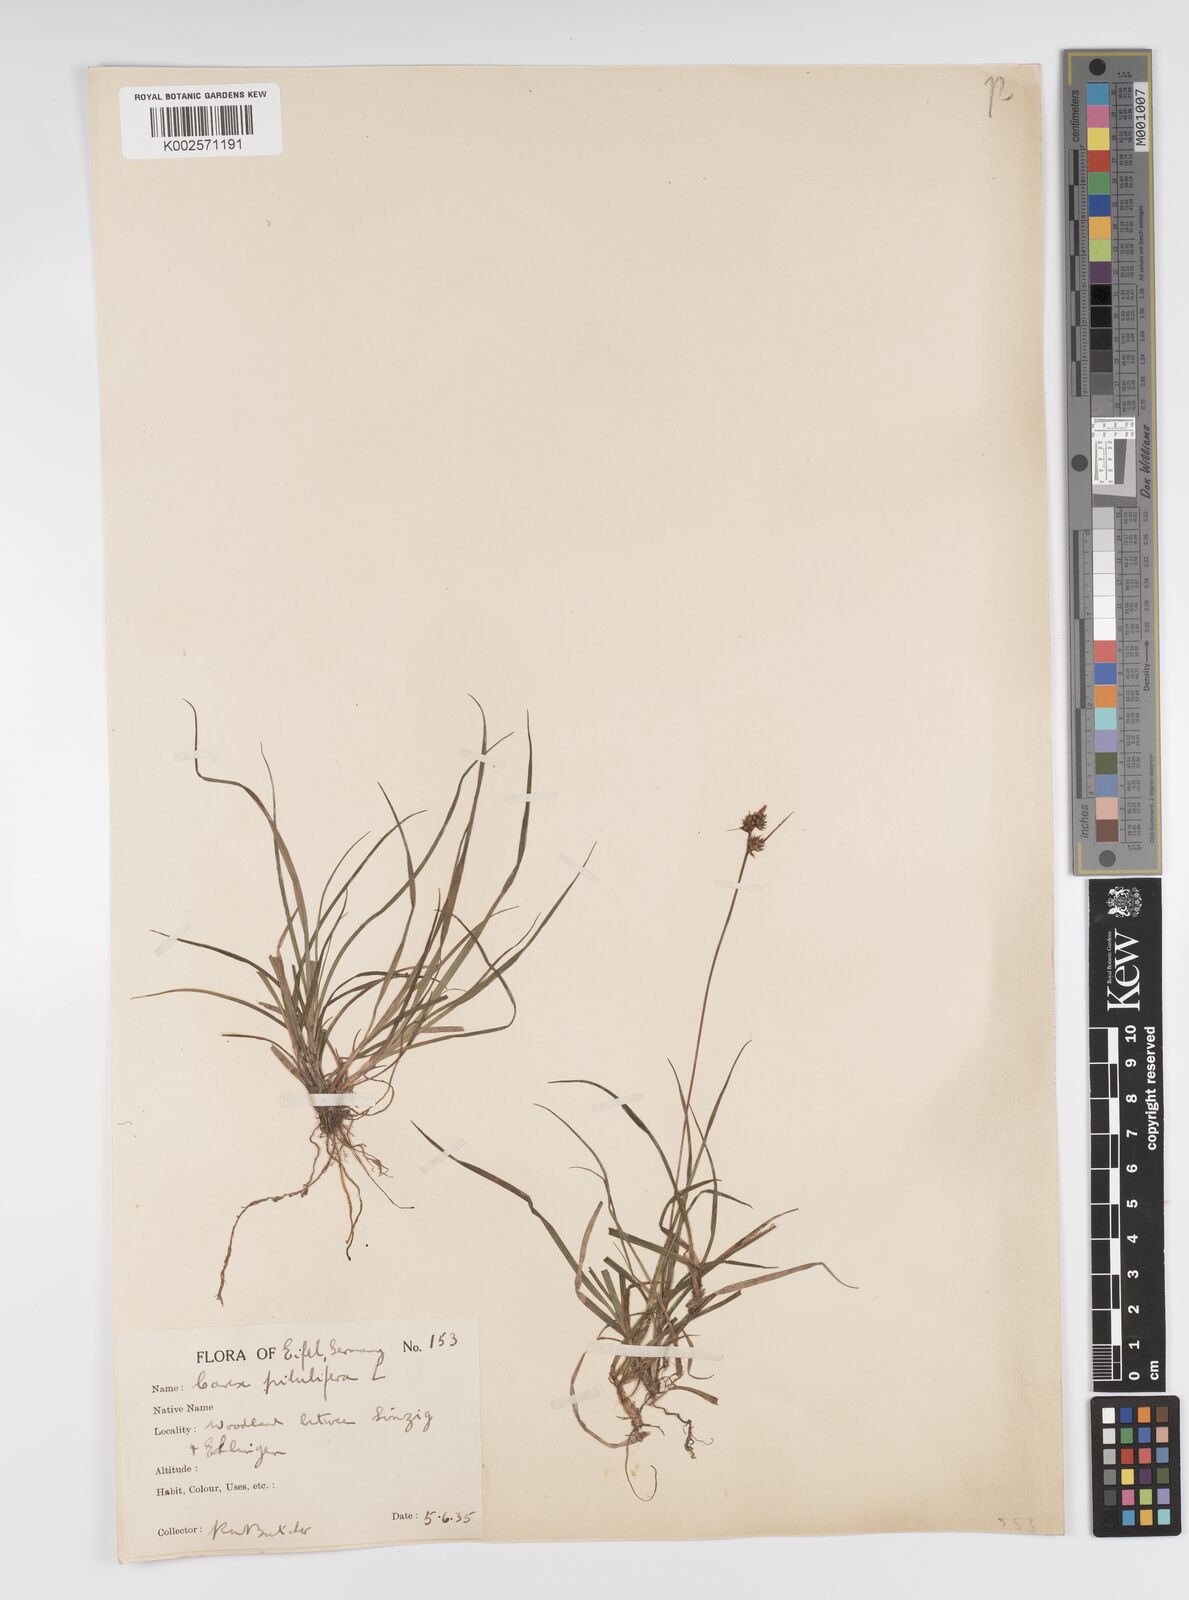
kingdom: Plantae
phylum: Tracheophyta
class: Liliopsida
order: Poales
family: Cyperaceae
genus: Carex
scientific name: Carex pilulifera
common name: Pill sedge
